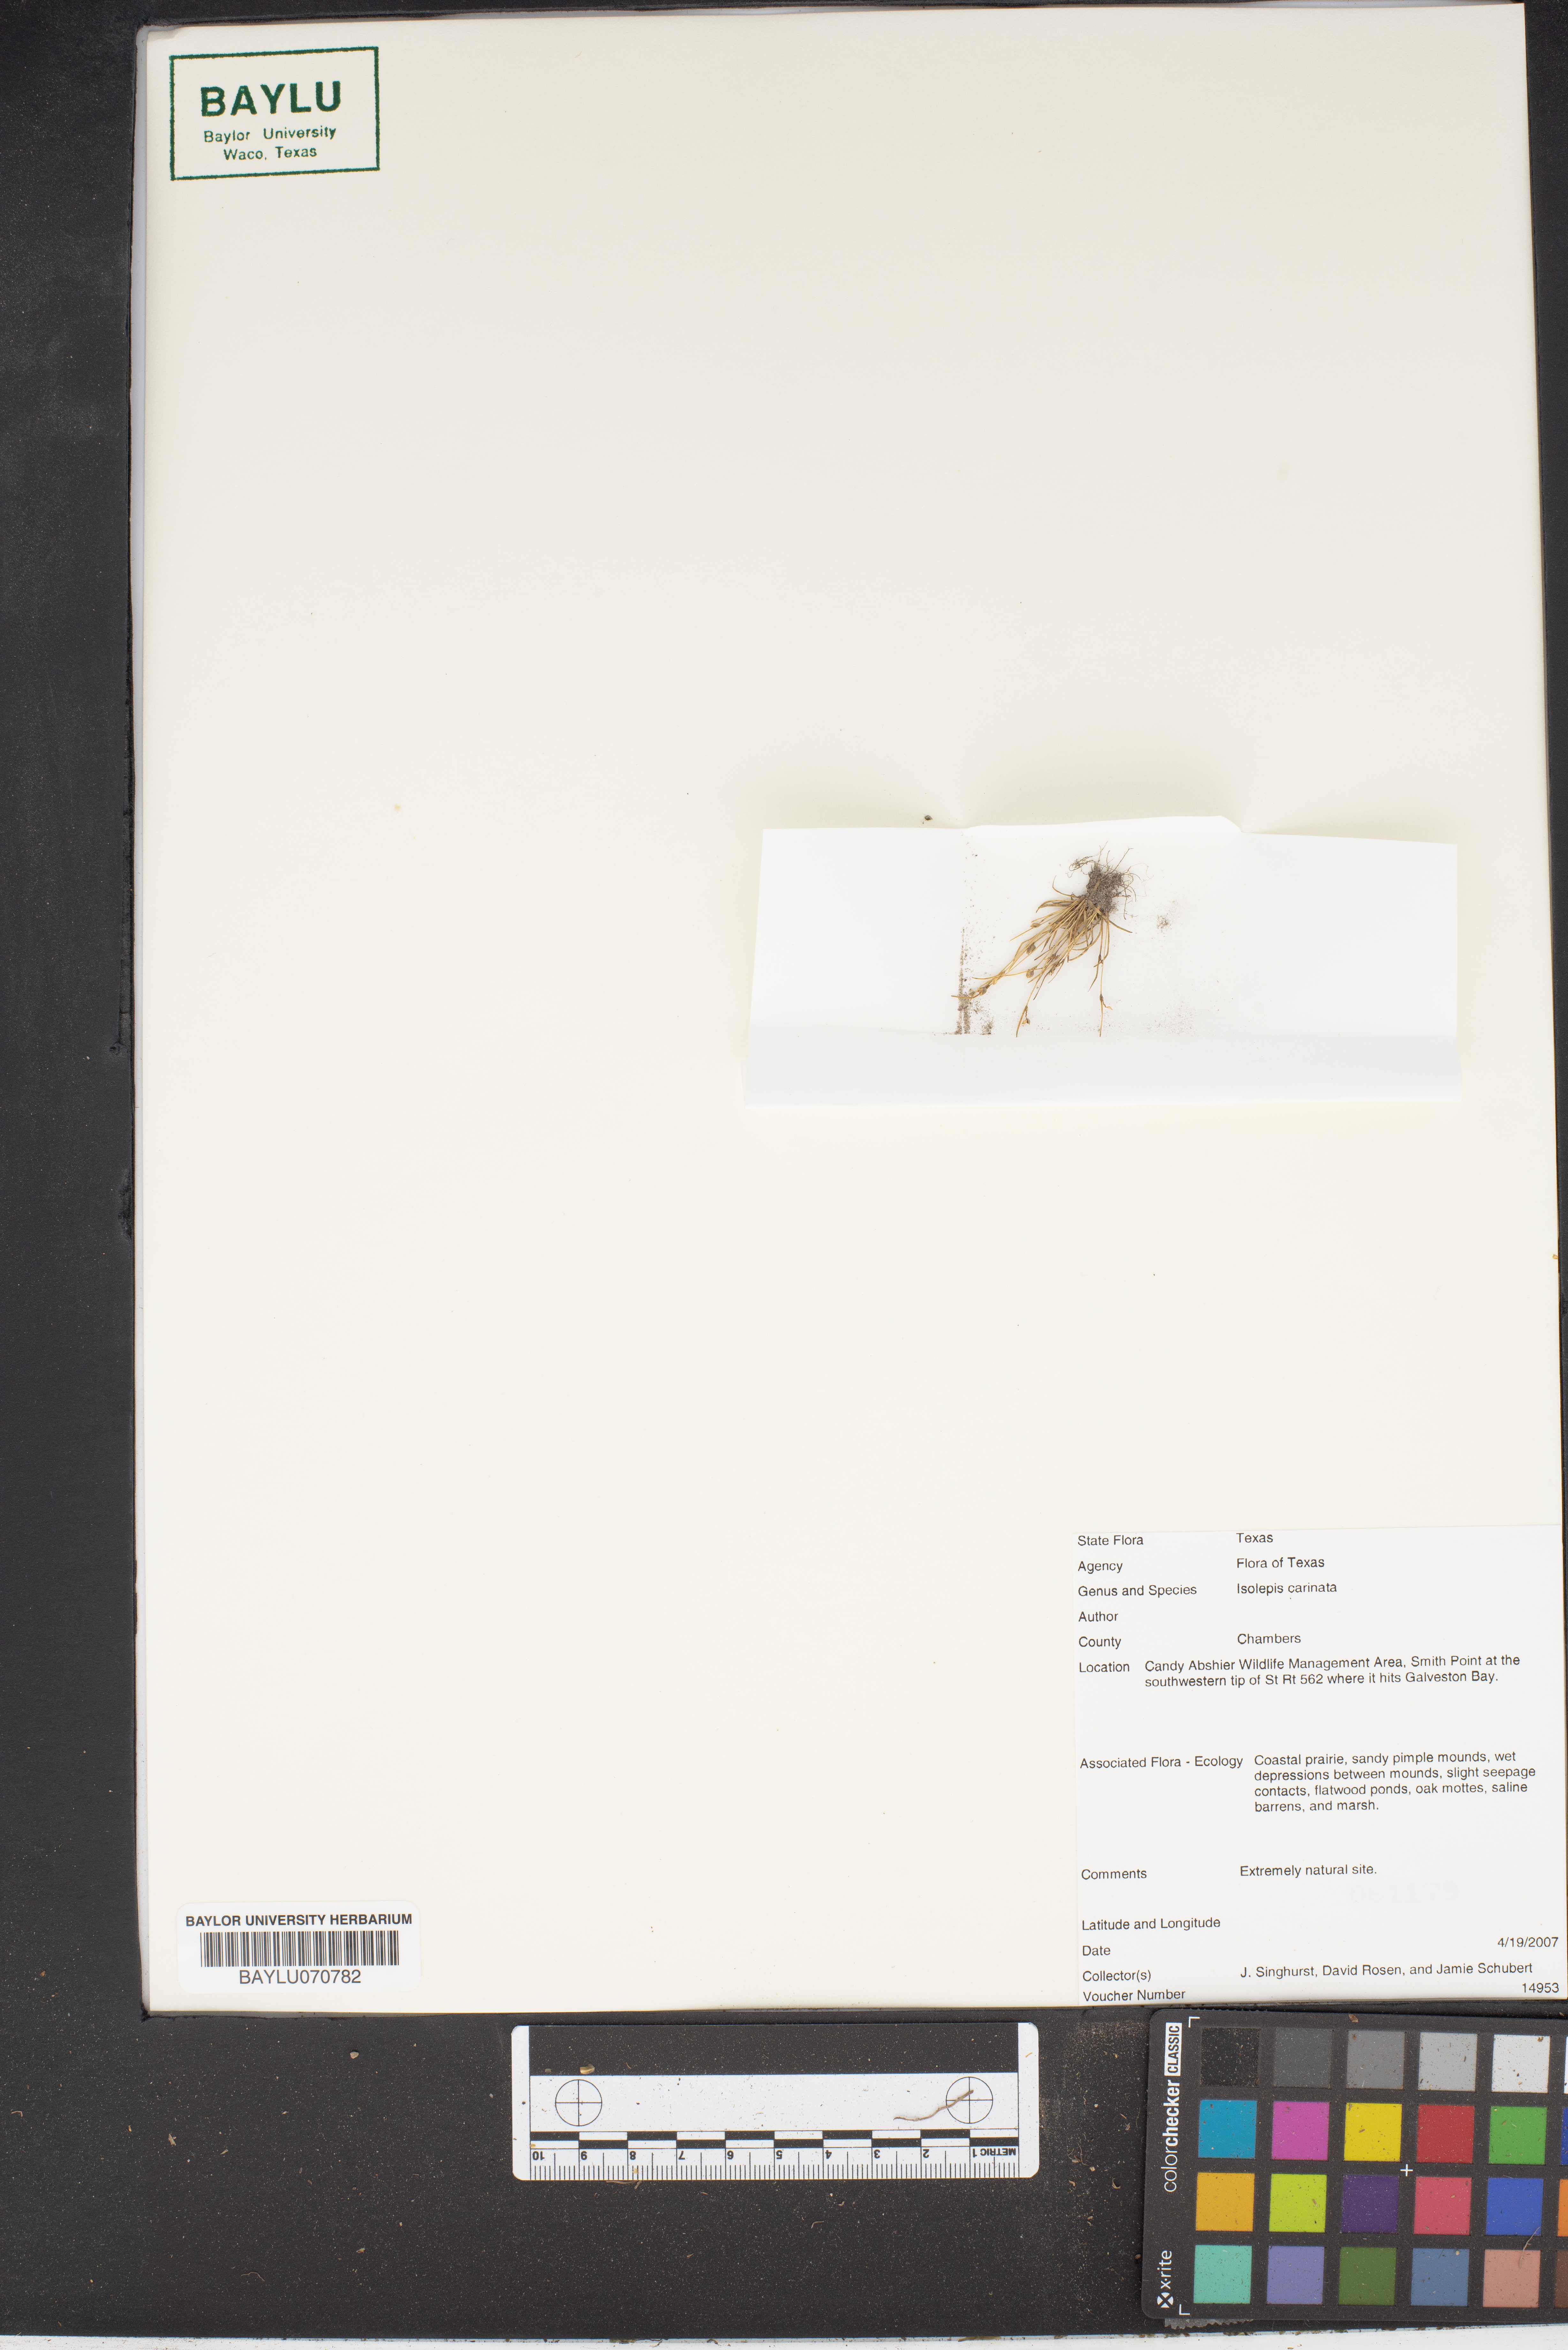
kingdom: Plantae
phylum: Tracheophyta
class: Liliopsida
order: Poales
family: Cyperaceae
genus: Isolepis
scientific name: Isolepis carinata
